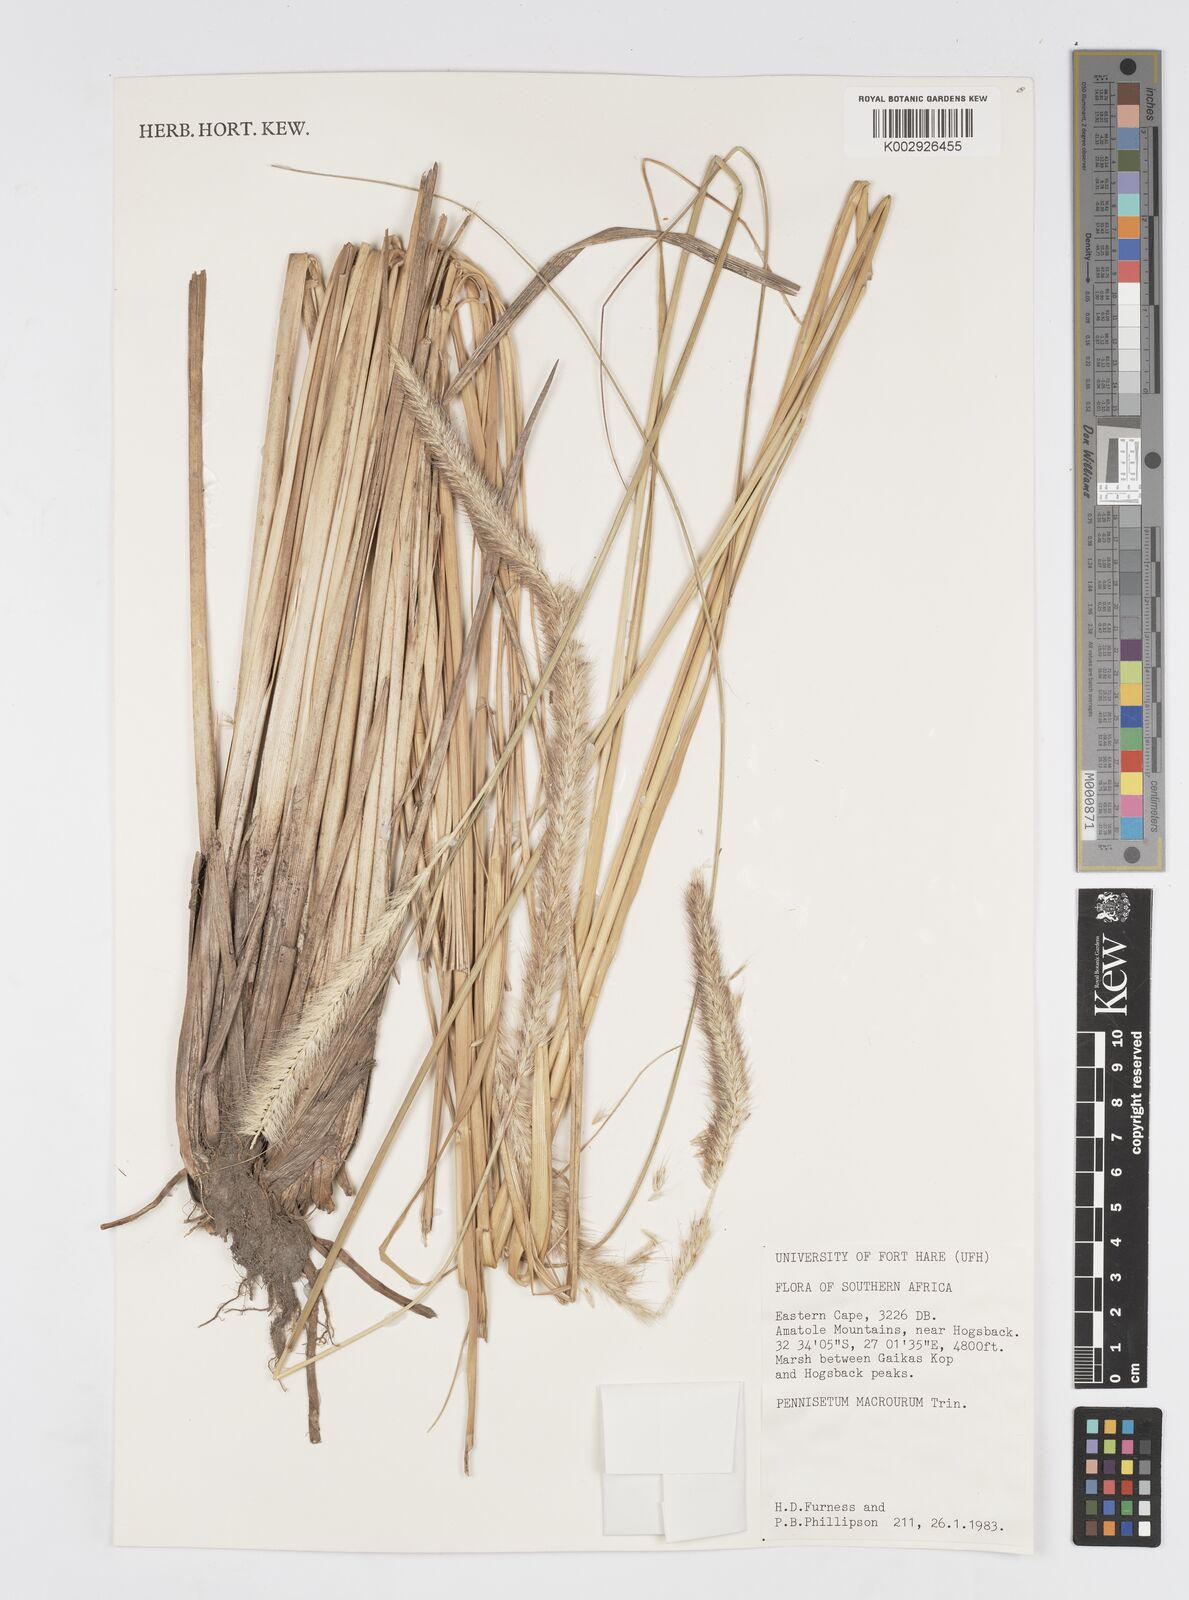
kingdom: Plantae
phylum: Tracheophyta
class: Liliopsida
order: Poales
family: Poaceae
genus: Cenchrus
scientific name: Cenchrus purpureus
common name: Elephant grass
